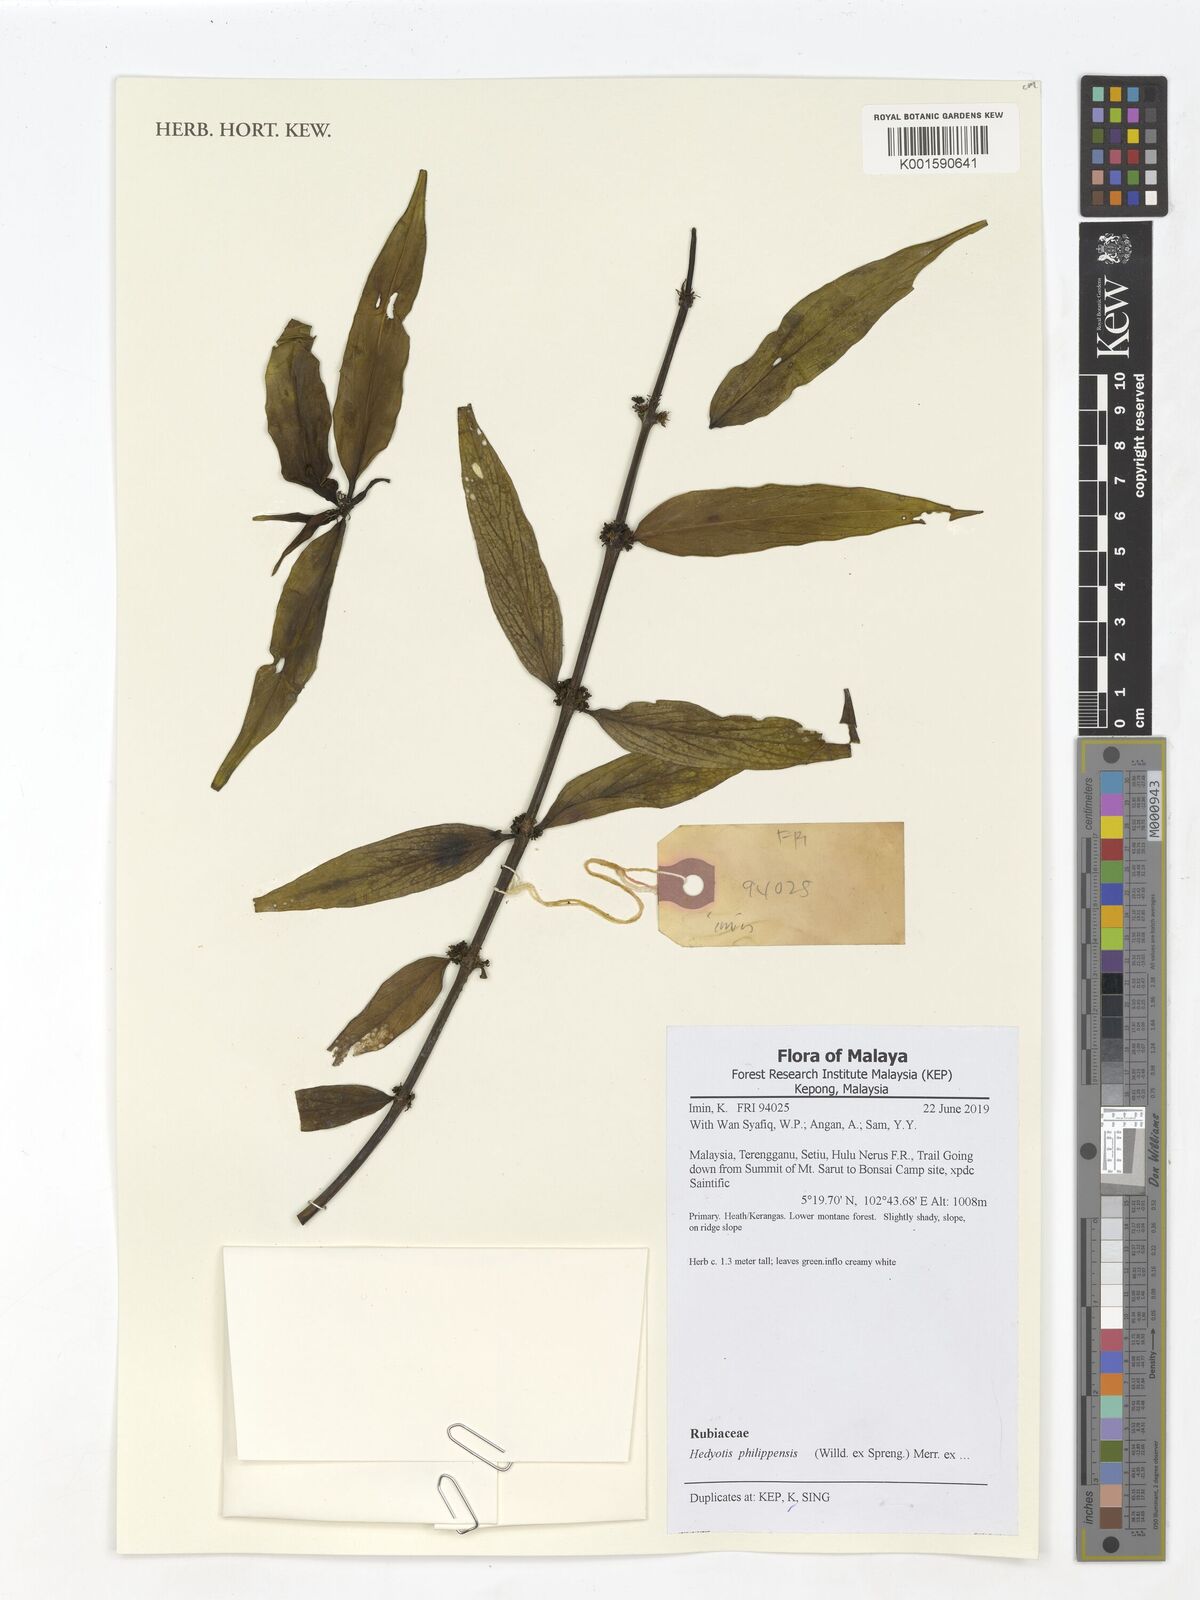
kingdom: Plantae
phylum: Tracheophyta
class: Magnoliopsida
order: Gentianales
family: Rubiaceae
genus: Hedyotis
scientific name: Hedyotis philippensis
